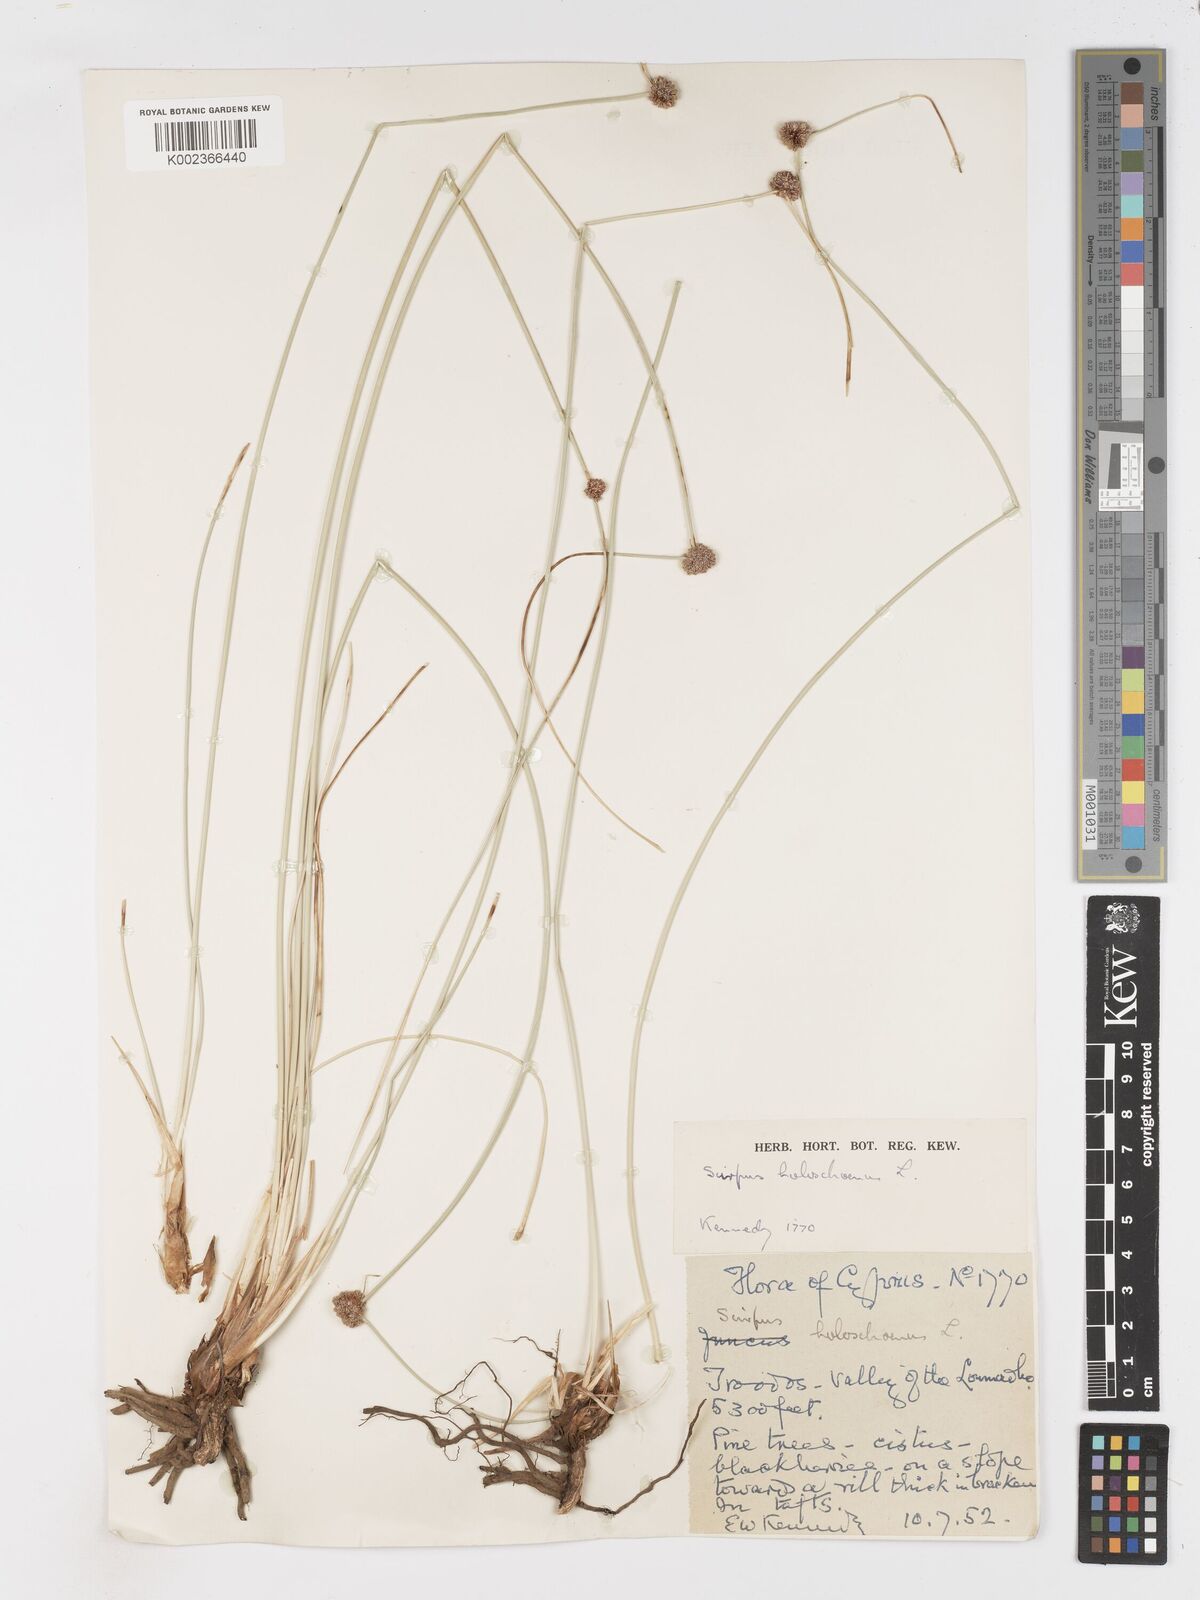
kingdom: Plantae
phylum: Tracheophyta
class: Liliopsida
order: Poales
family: Cyperaceae
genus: Scirpoides
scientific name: Scirpoides holoschoenus
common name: Round-headed club-rush
